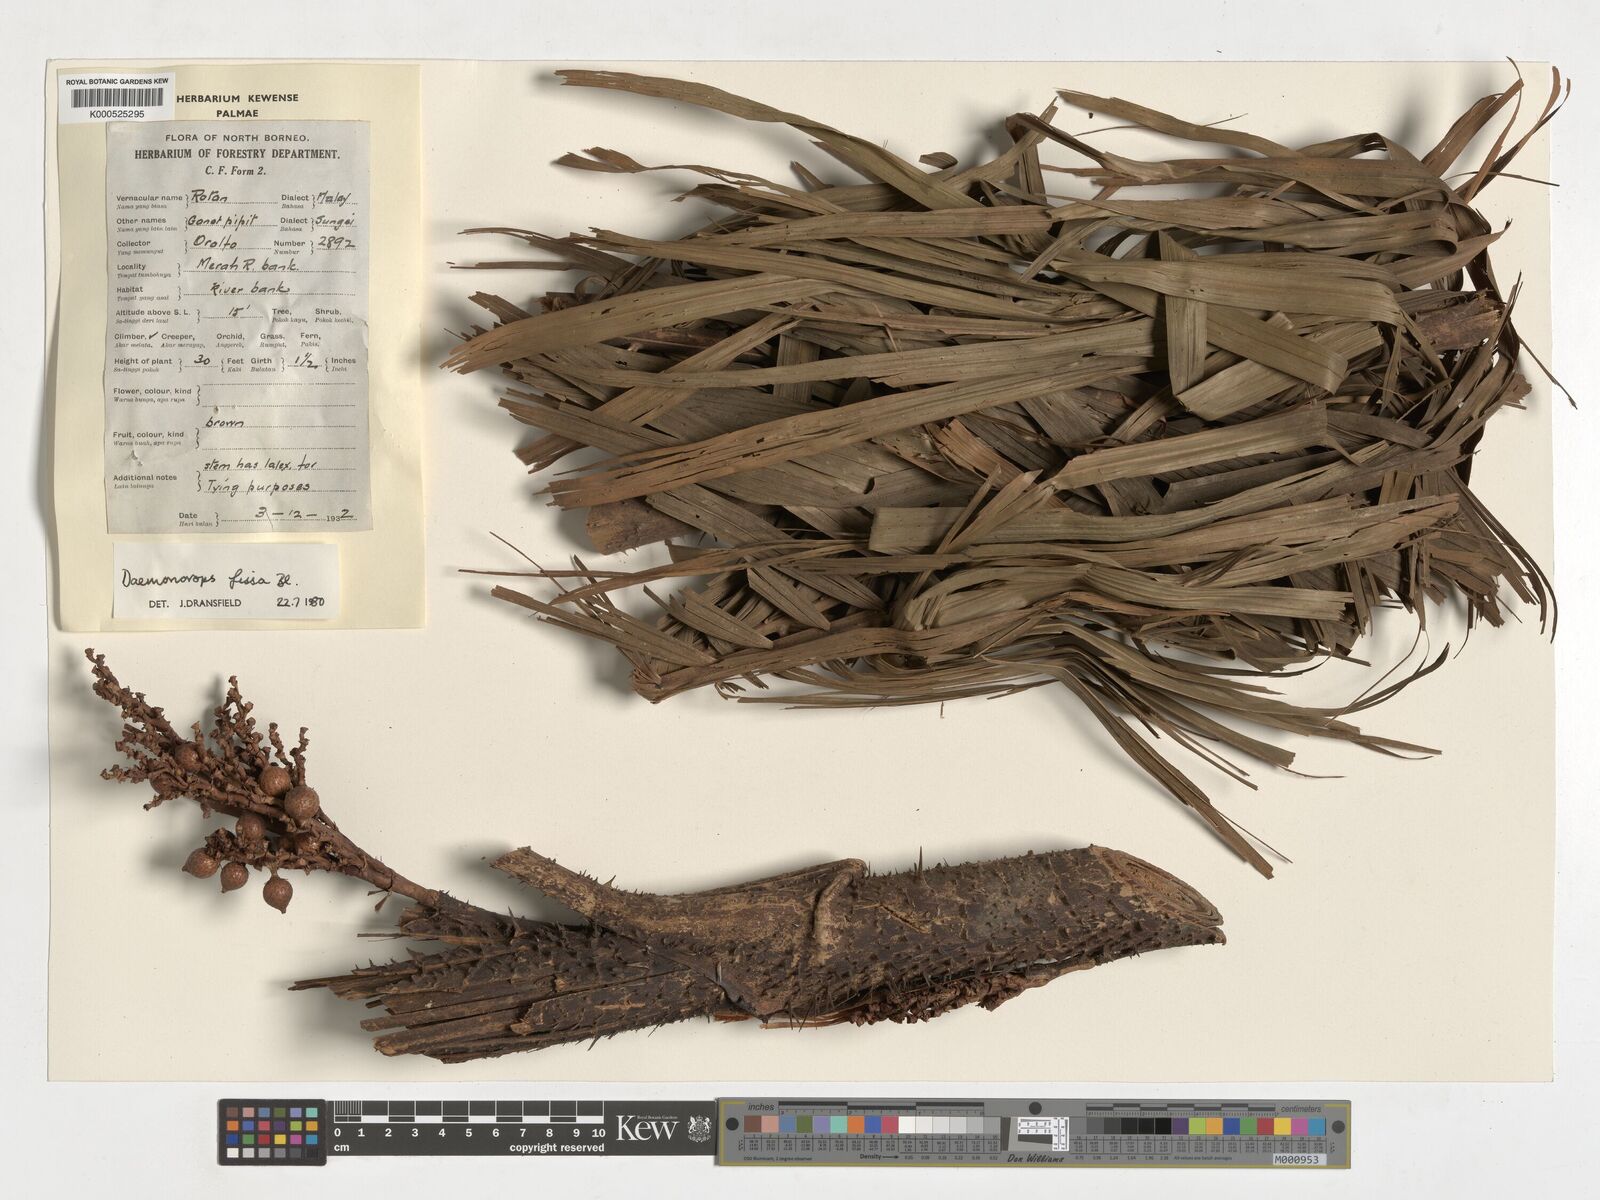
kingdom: Plantae
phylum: Tracheophyta
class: Liliopsida
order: Arecales
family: Arecaceae
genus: Calamus
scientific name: Calamus melanochaetes
